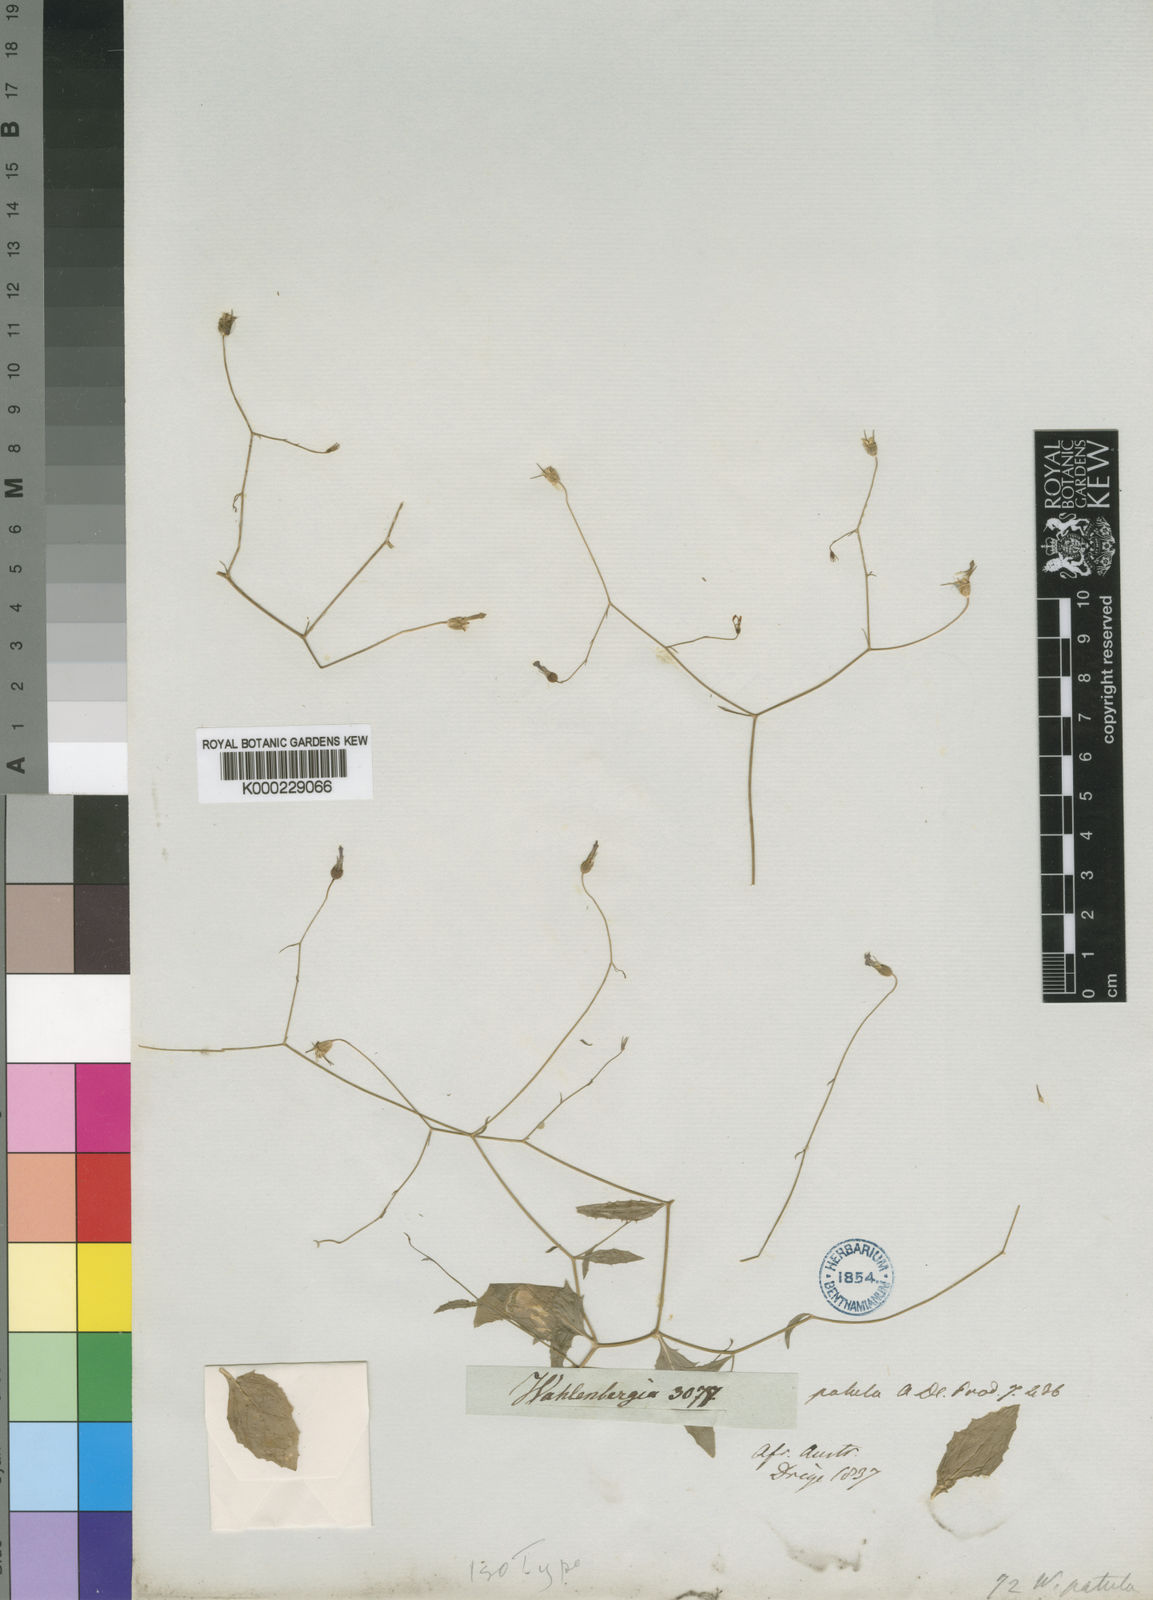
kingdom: Plantae
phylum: Tracheophyta
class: Magnoliopsida
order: Asterales
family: Campanulaceae
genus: Wahlenbergia
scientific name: Wahlenbergia patula
